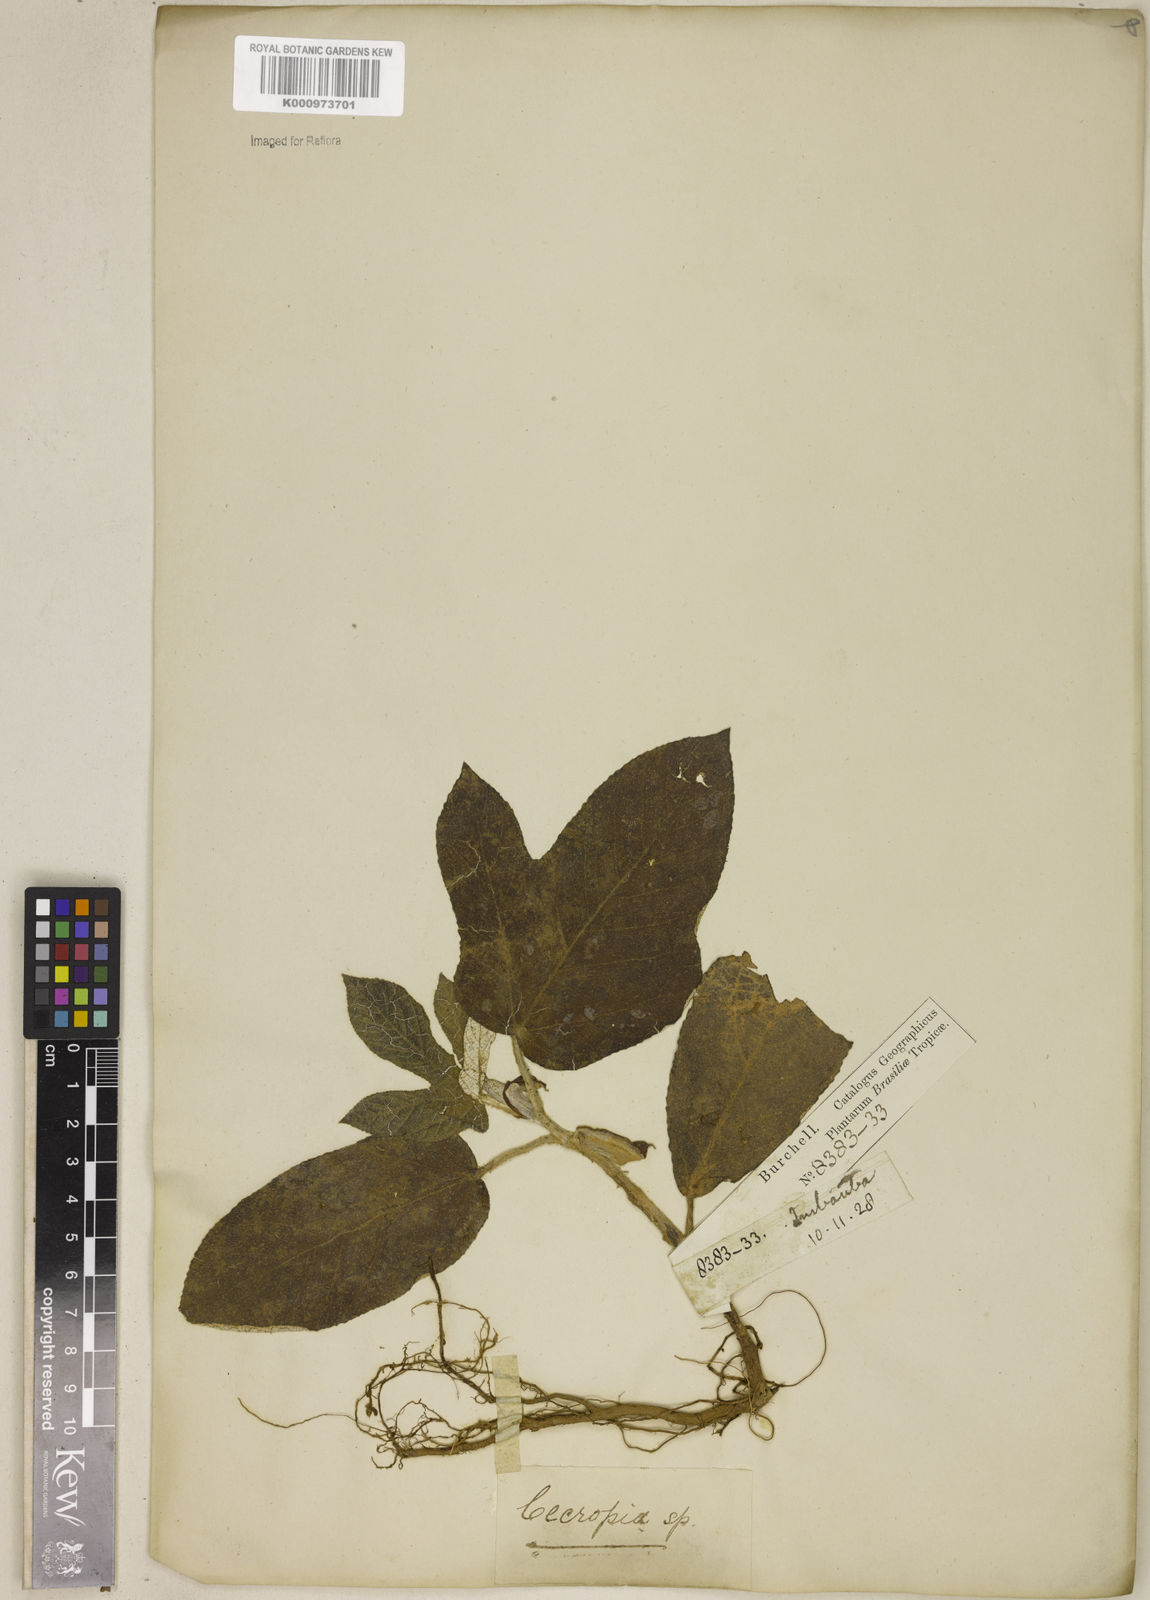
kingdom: Plantae
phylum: Tracheophyta
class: Magnoliopsida
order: Rosales
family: Urticaceae
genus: Cecropia
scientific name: Cecropia
